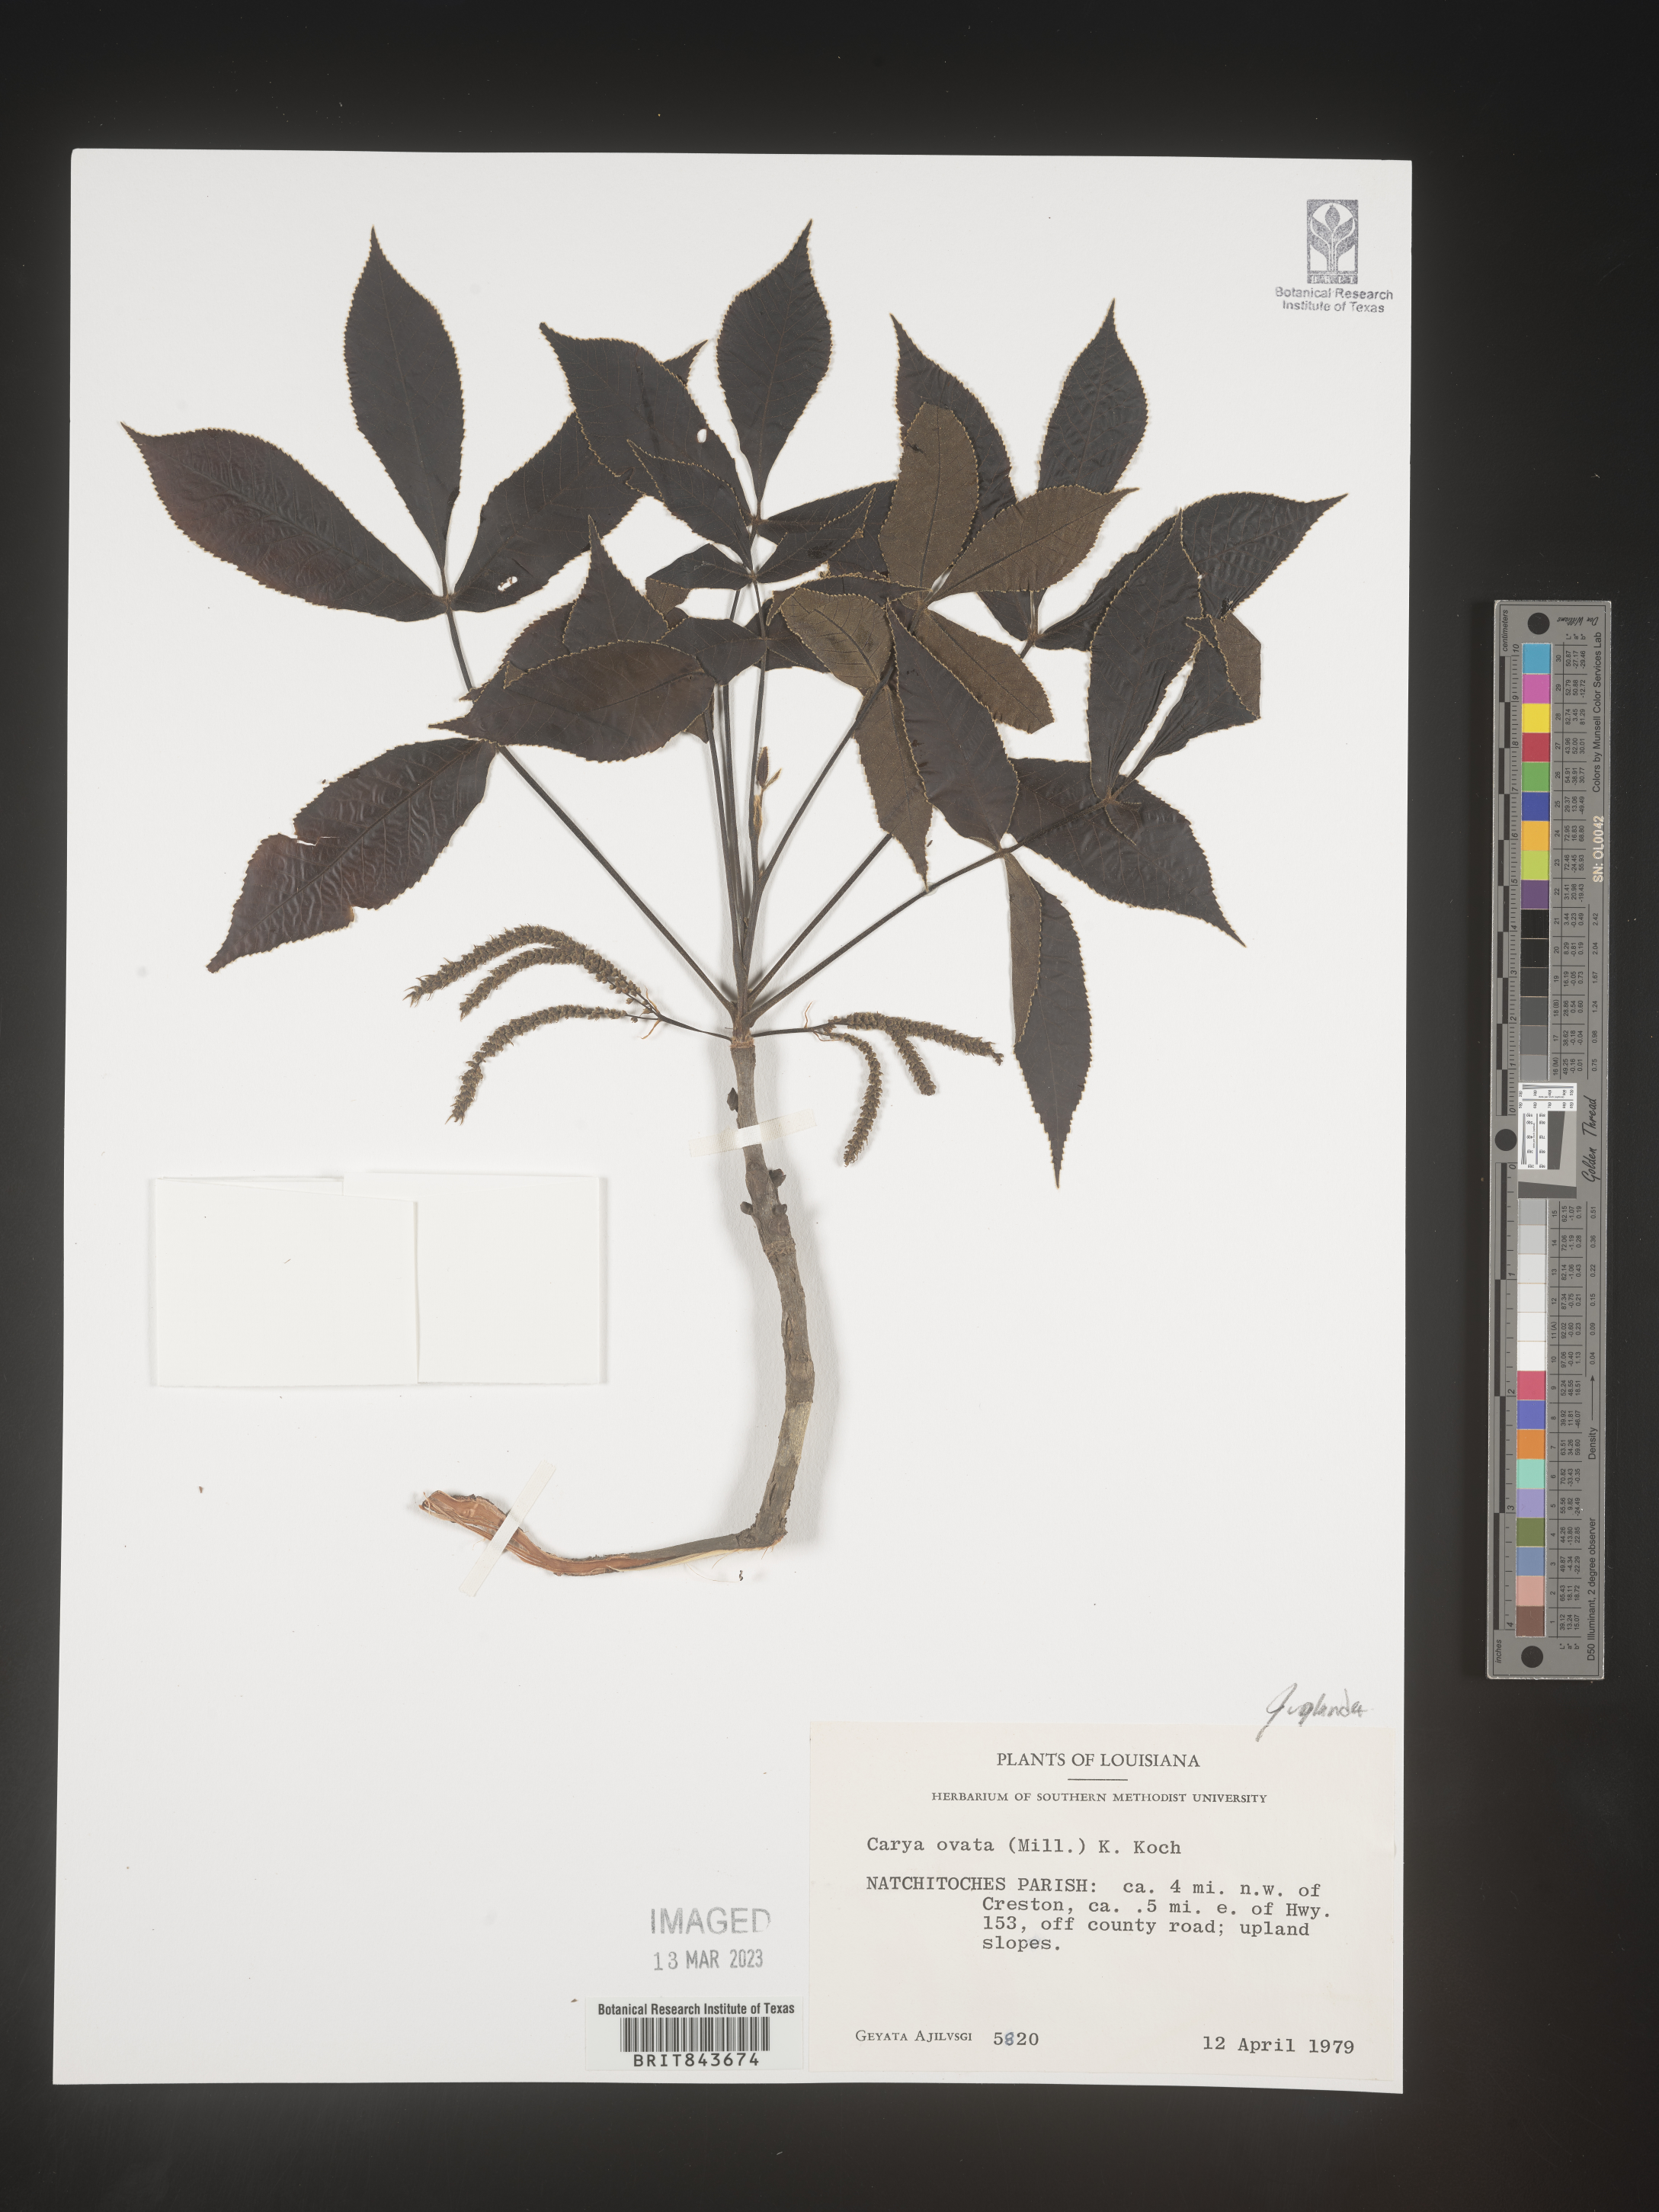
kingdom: Plantae
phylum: Tracheophyta
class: Magnoliopsida
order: Fagales
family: Juglandaceae
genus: Carya
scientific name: Carya ovata
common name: Shagbark hickory
